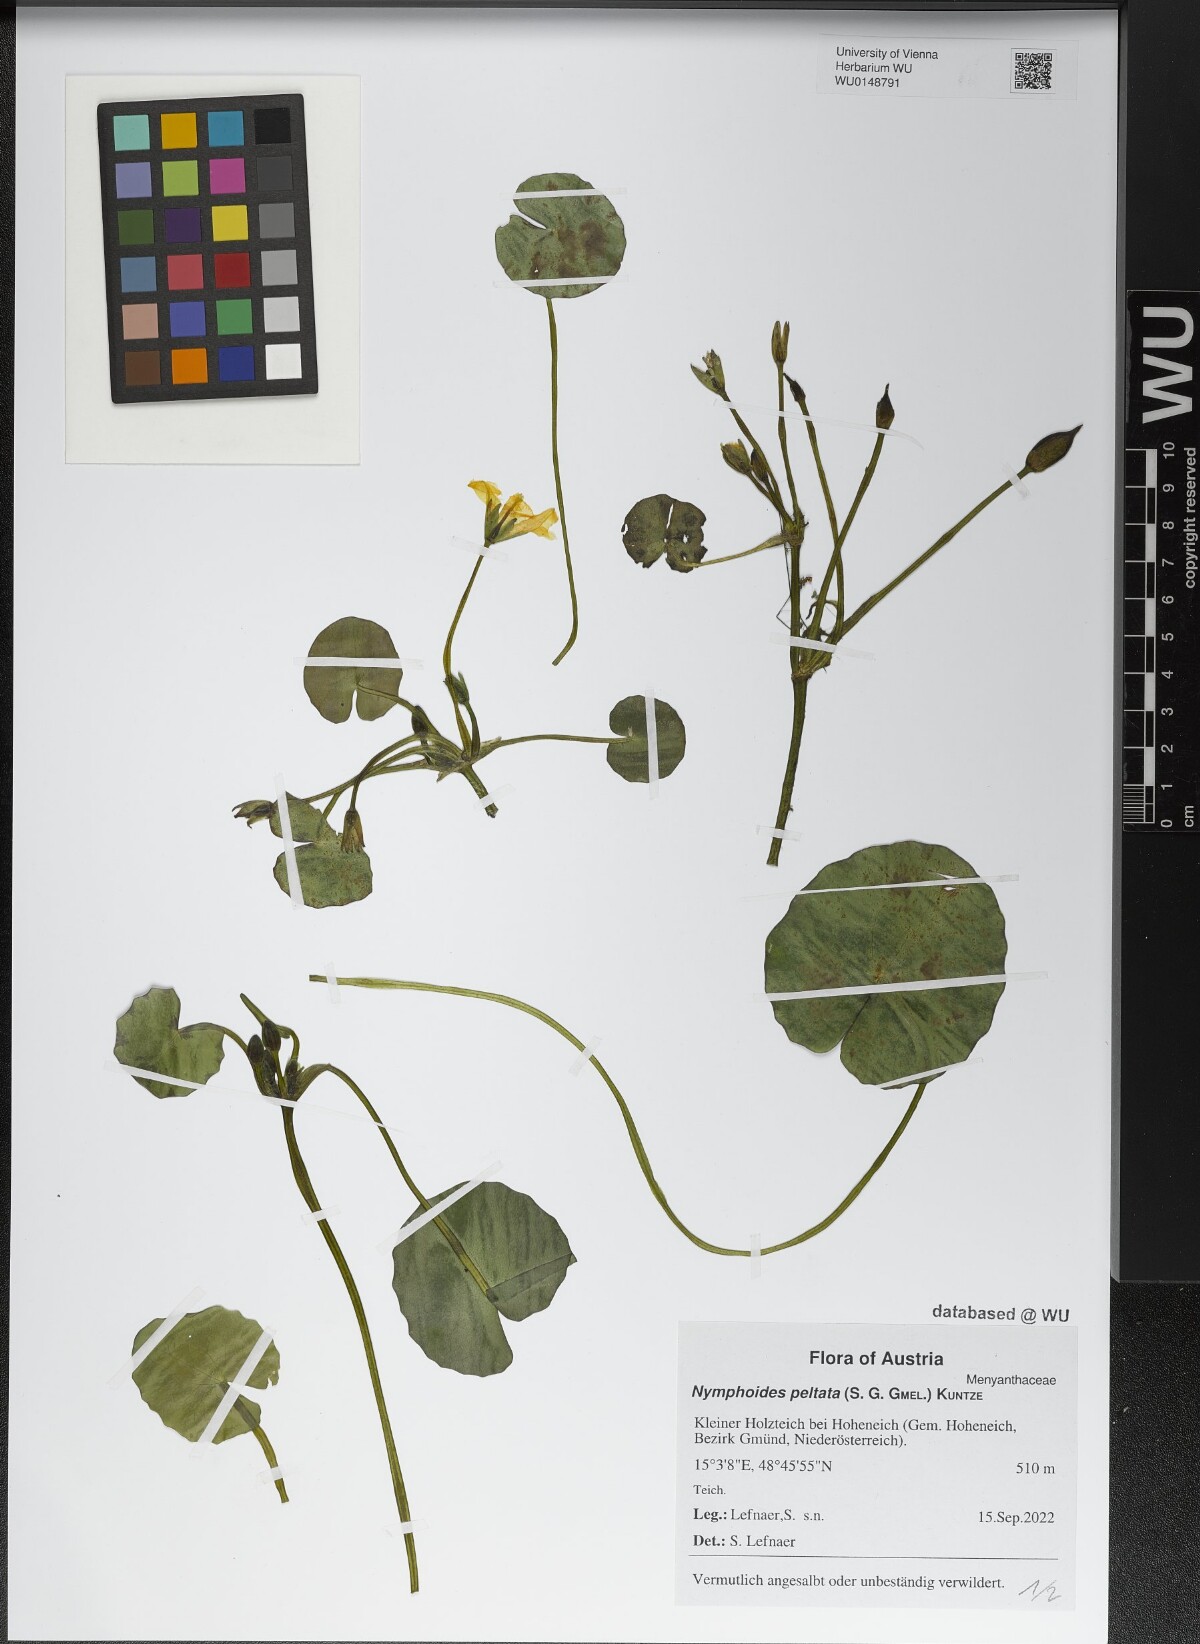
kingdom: Plantae
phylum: Tracheophyta
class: Magnoliopsida
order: Asterales
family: Menyanthaceae
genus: Nymphoides
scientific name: Nymphoides peltata
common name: Fringed water-lily
